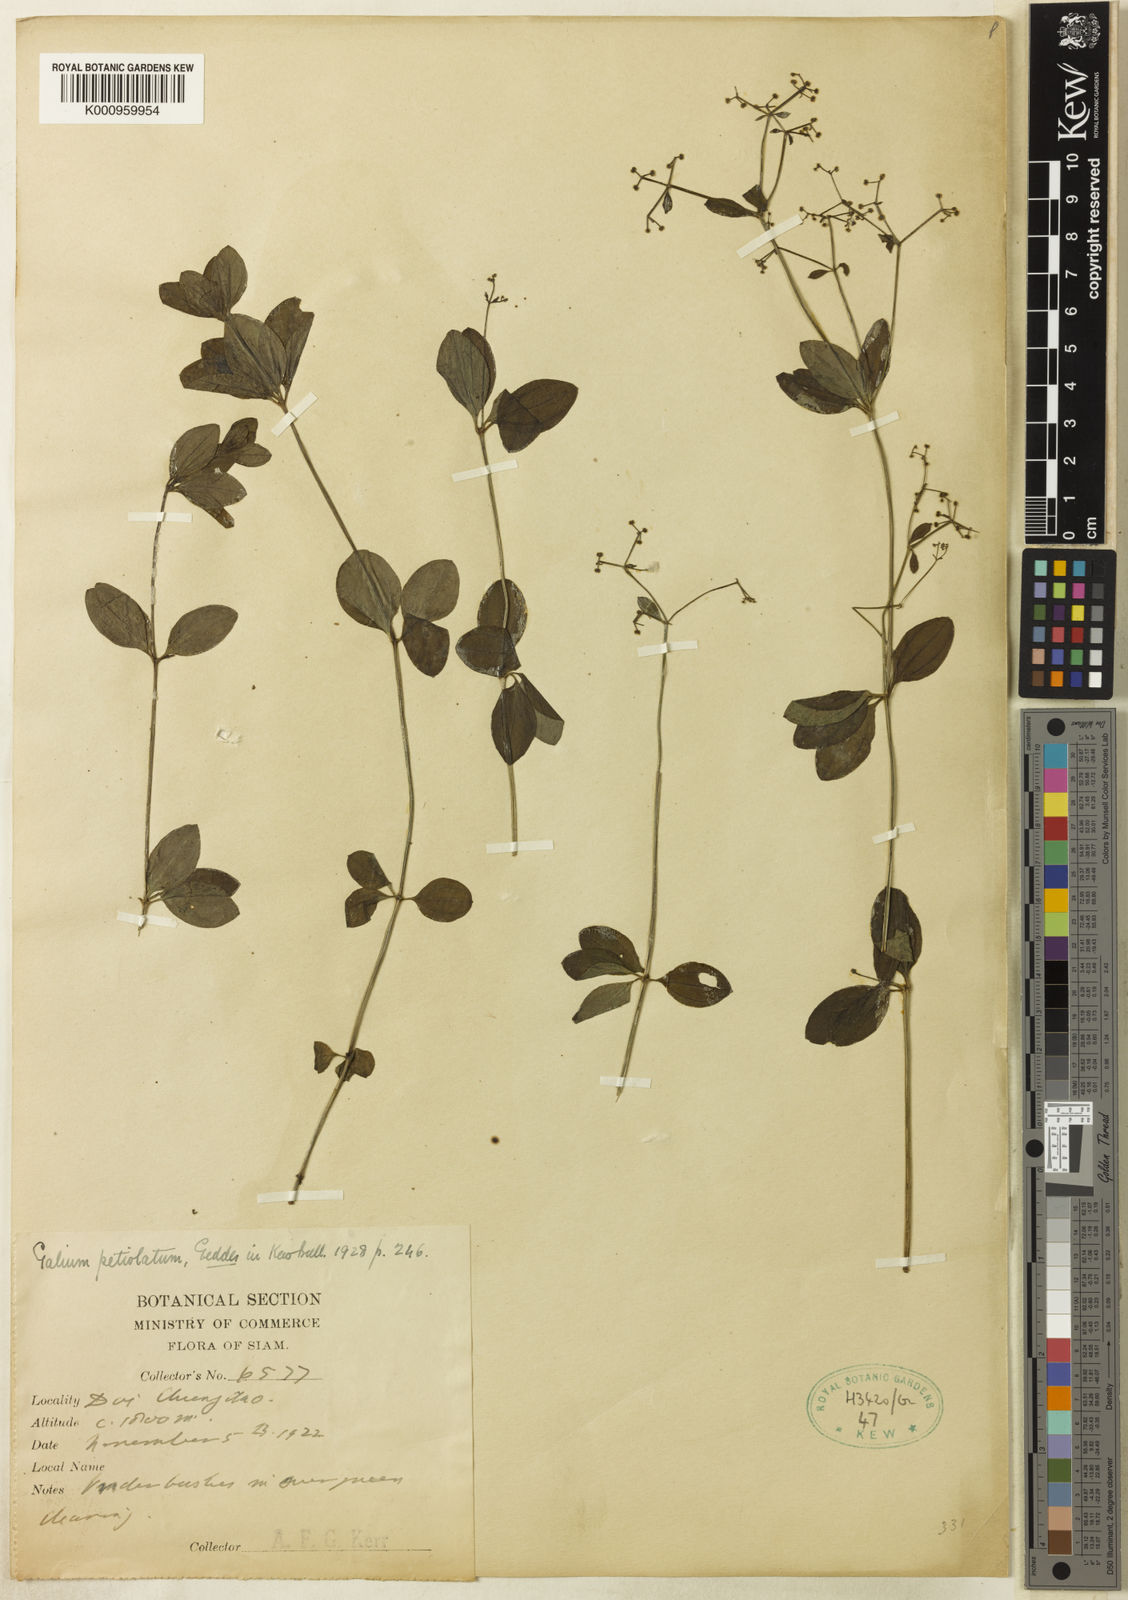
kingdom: Plantae
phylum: Tracheophyta
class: Magnoliopsida
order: Gentianales
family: Rubiaceae
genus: Galium
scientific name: Galium elegans
